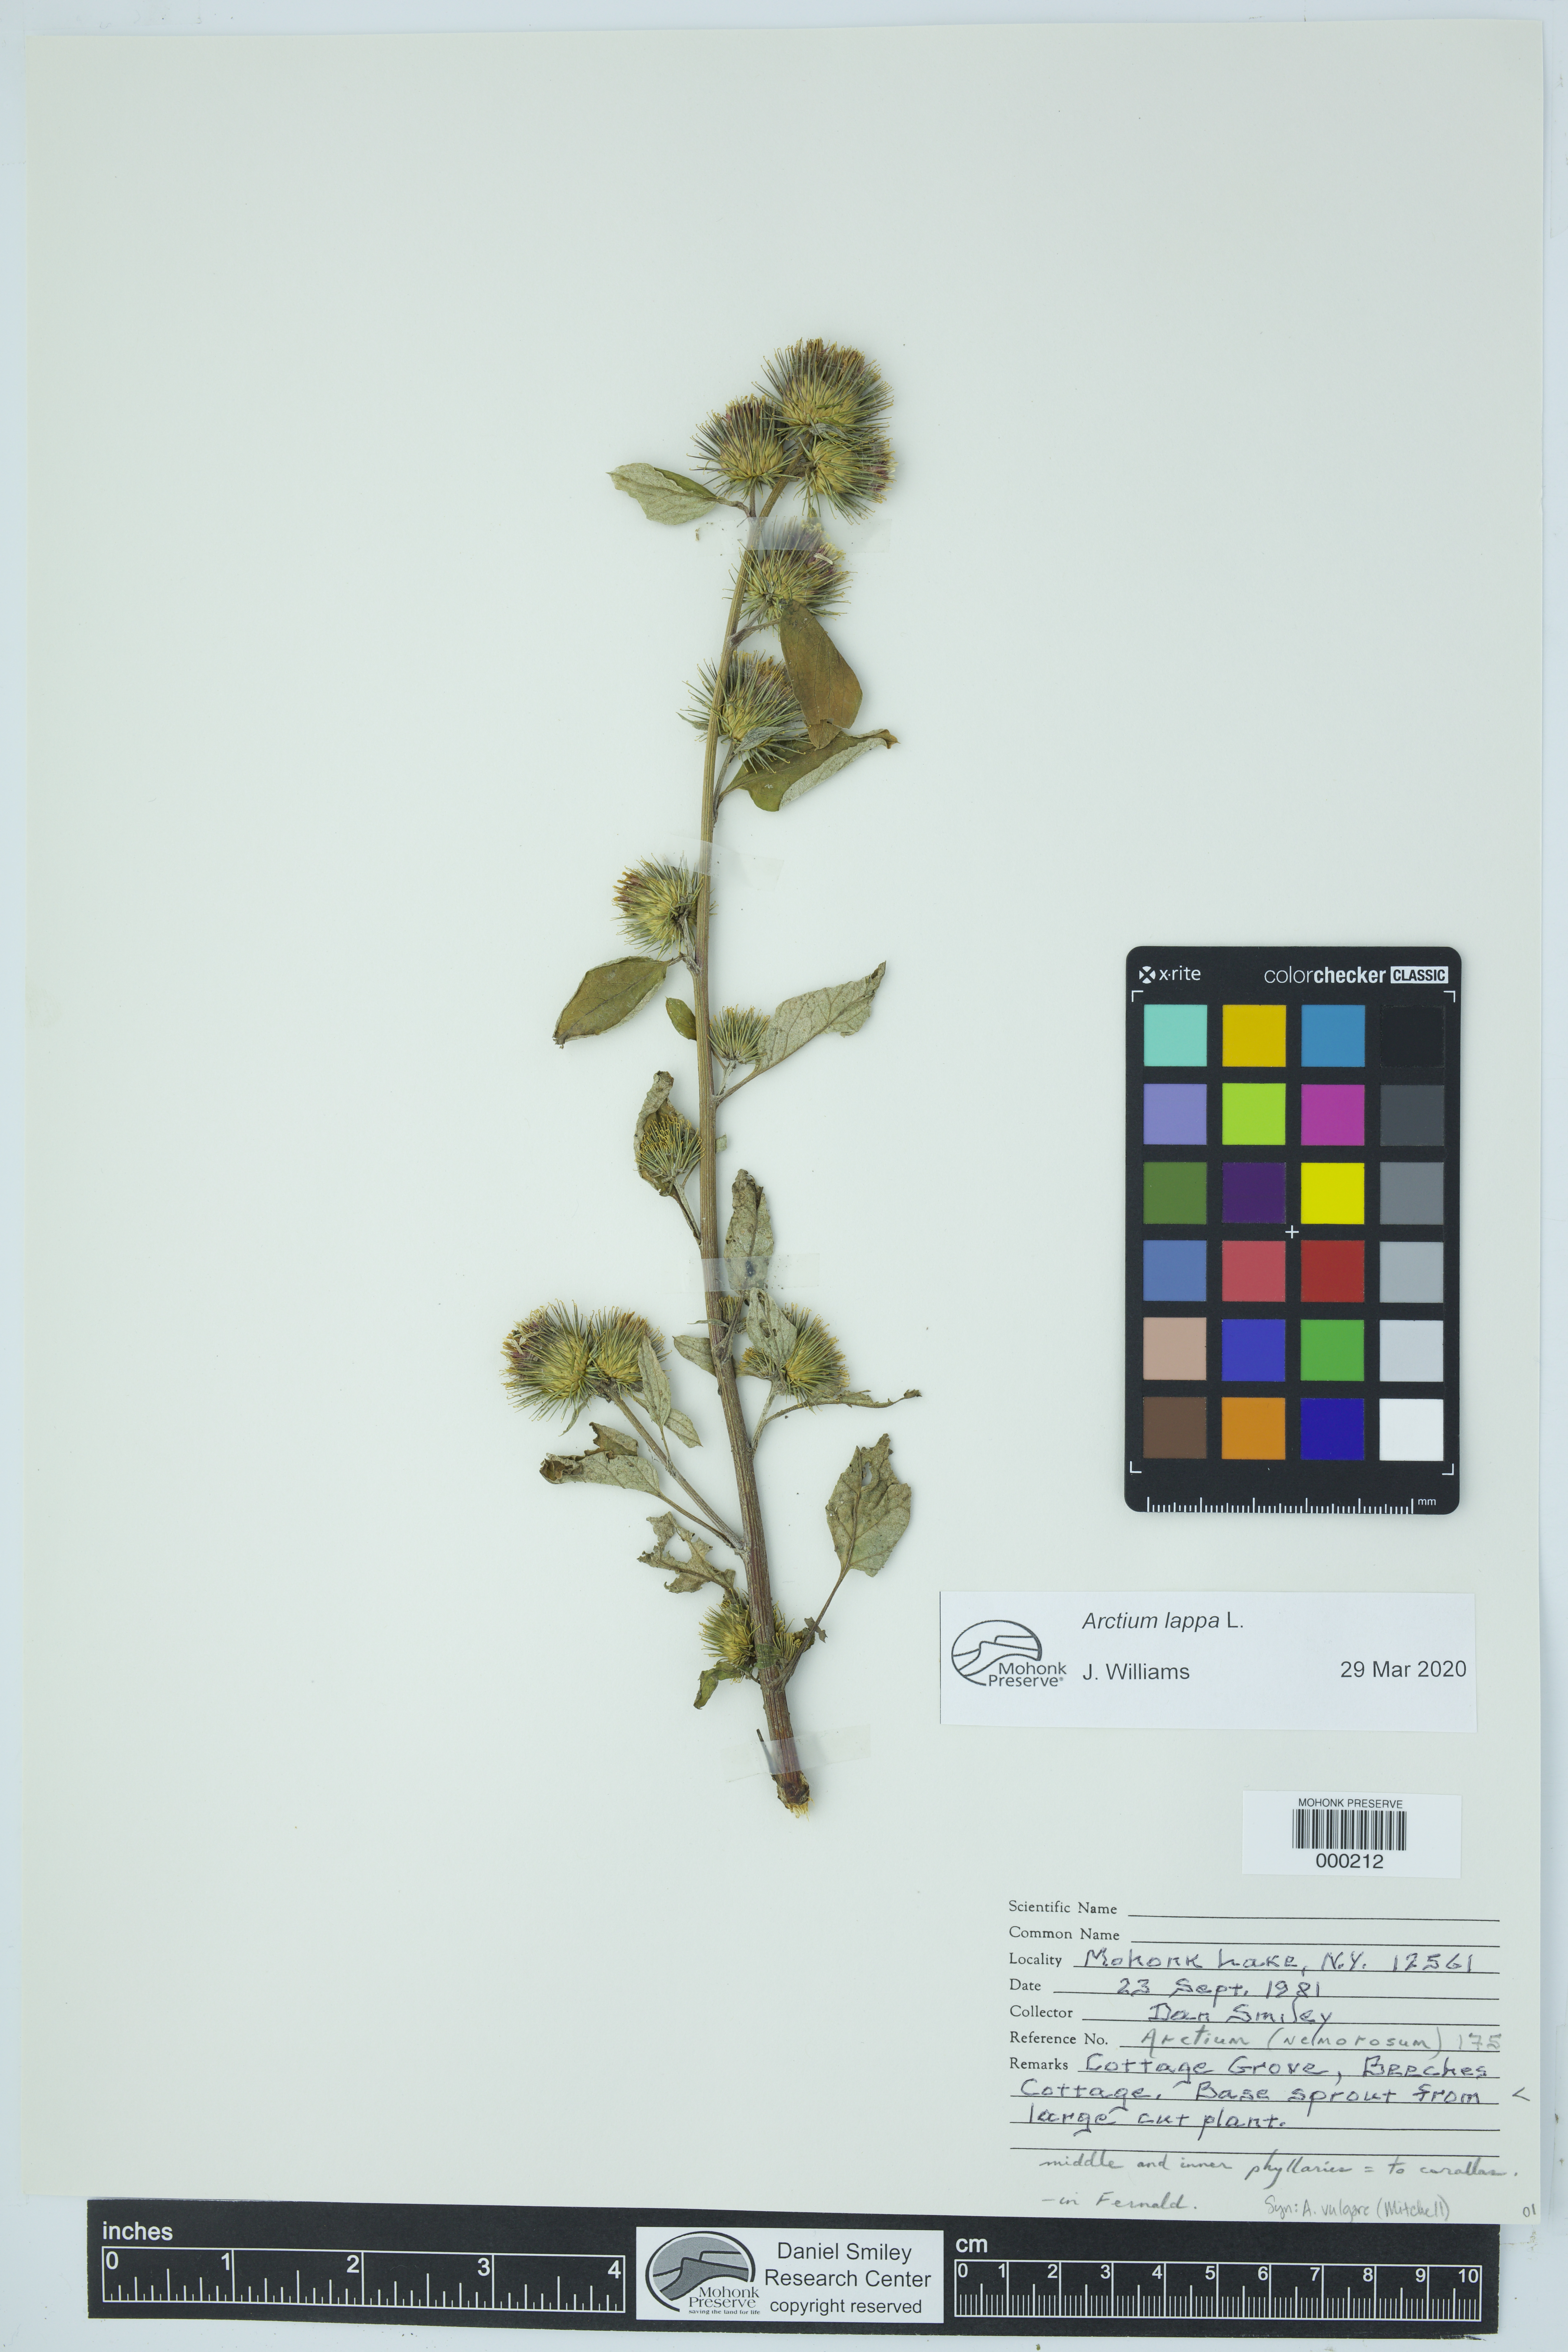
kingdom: Plantae
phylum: Tracheophyta
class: Magnoliopsida
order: Asterales
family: Asteraceae
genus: Arctium
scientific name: Arctium lappa
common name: Greater burdock
